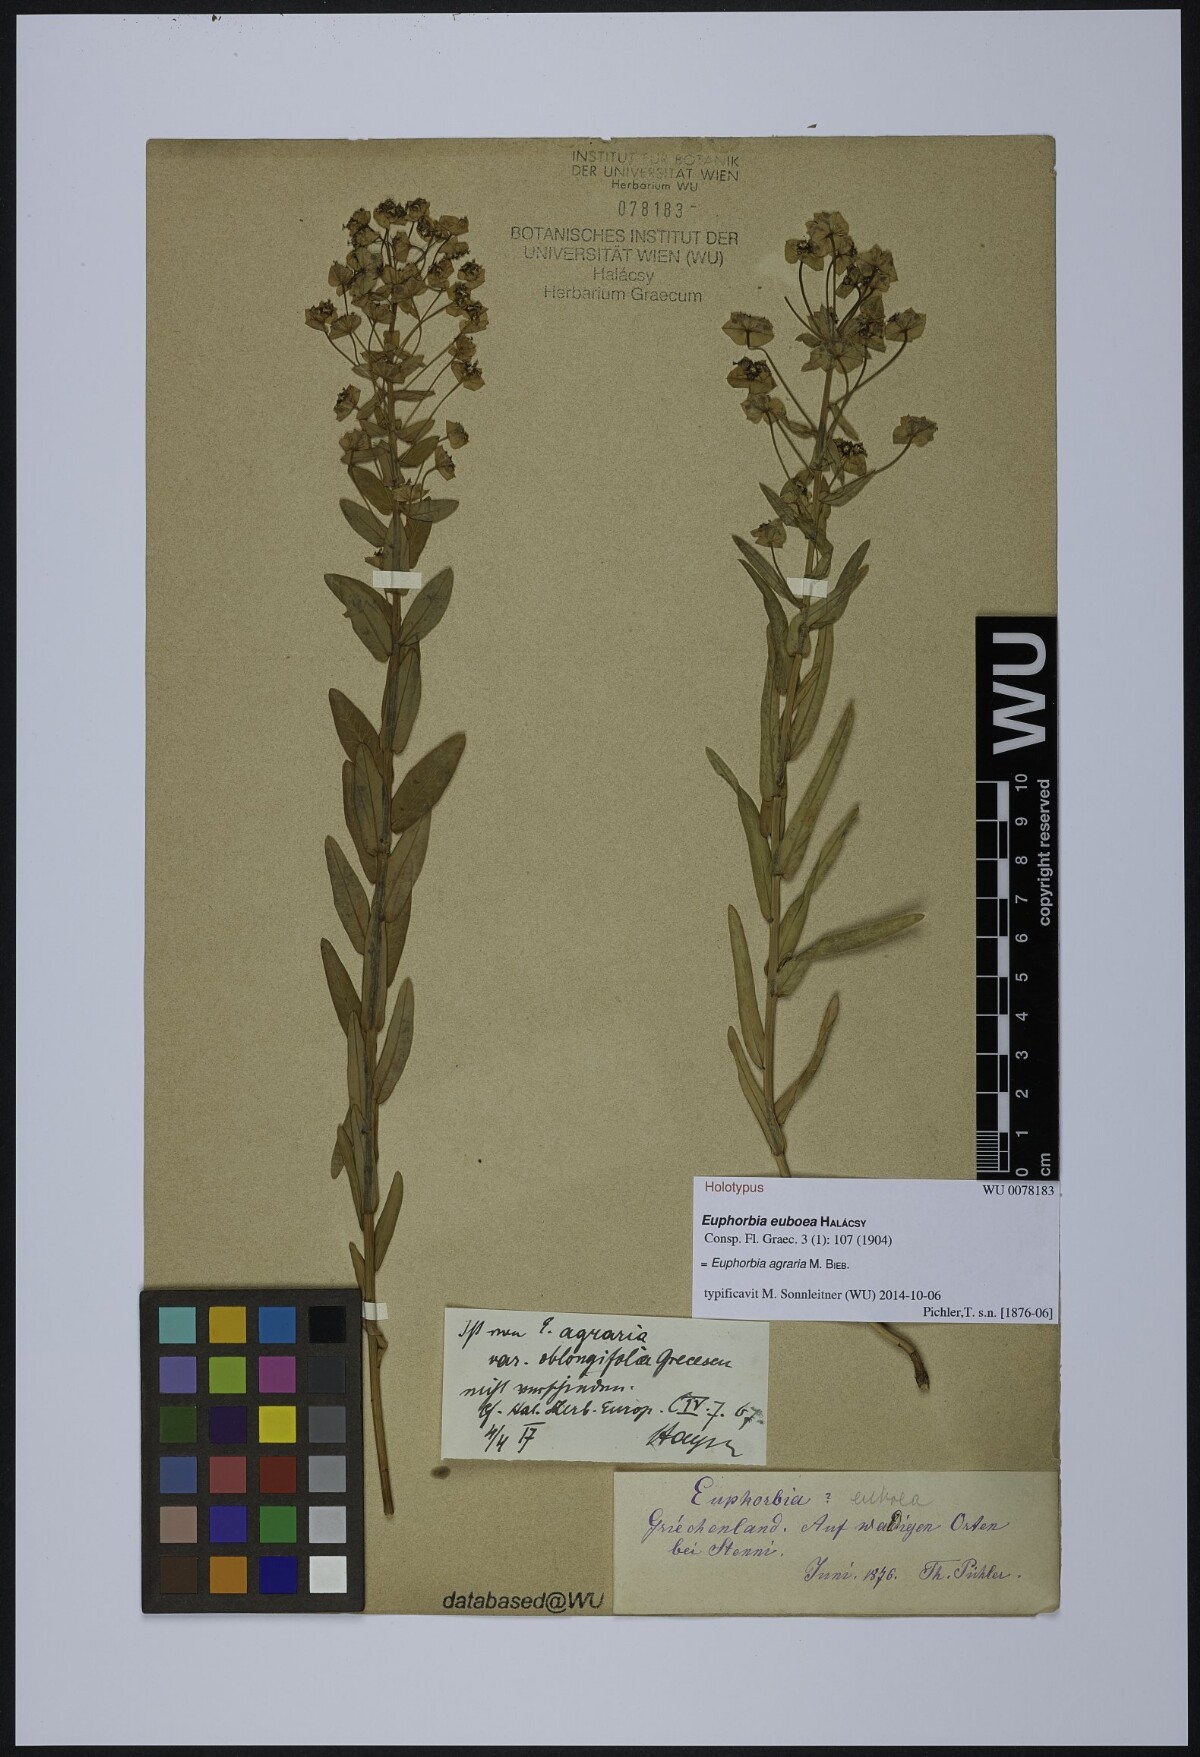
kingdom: Plantae
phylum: Tracheophyta
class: Magnoliopsida
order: Malpighiales
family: Euphorbiaceae
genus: Euphorbia
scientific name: Euphorbia agraria
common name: Urban spurge
